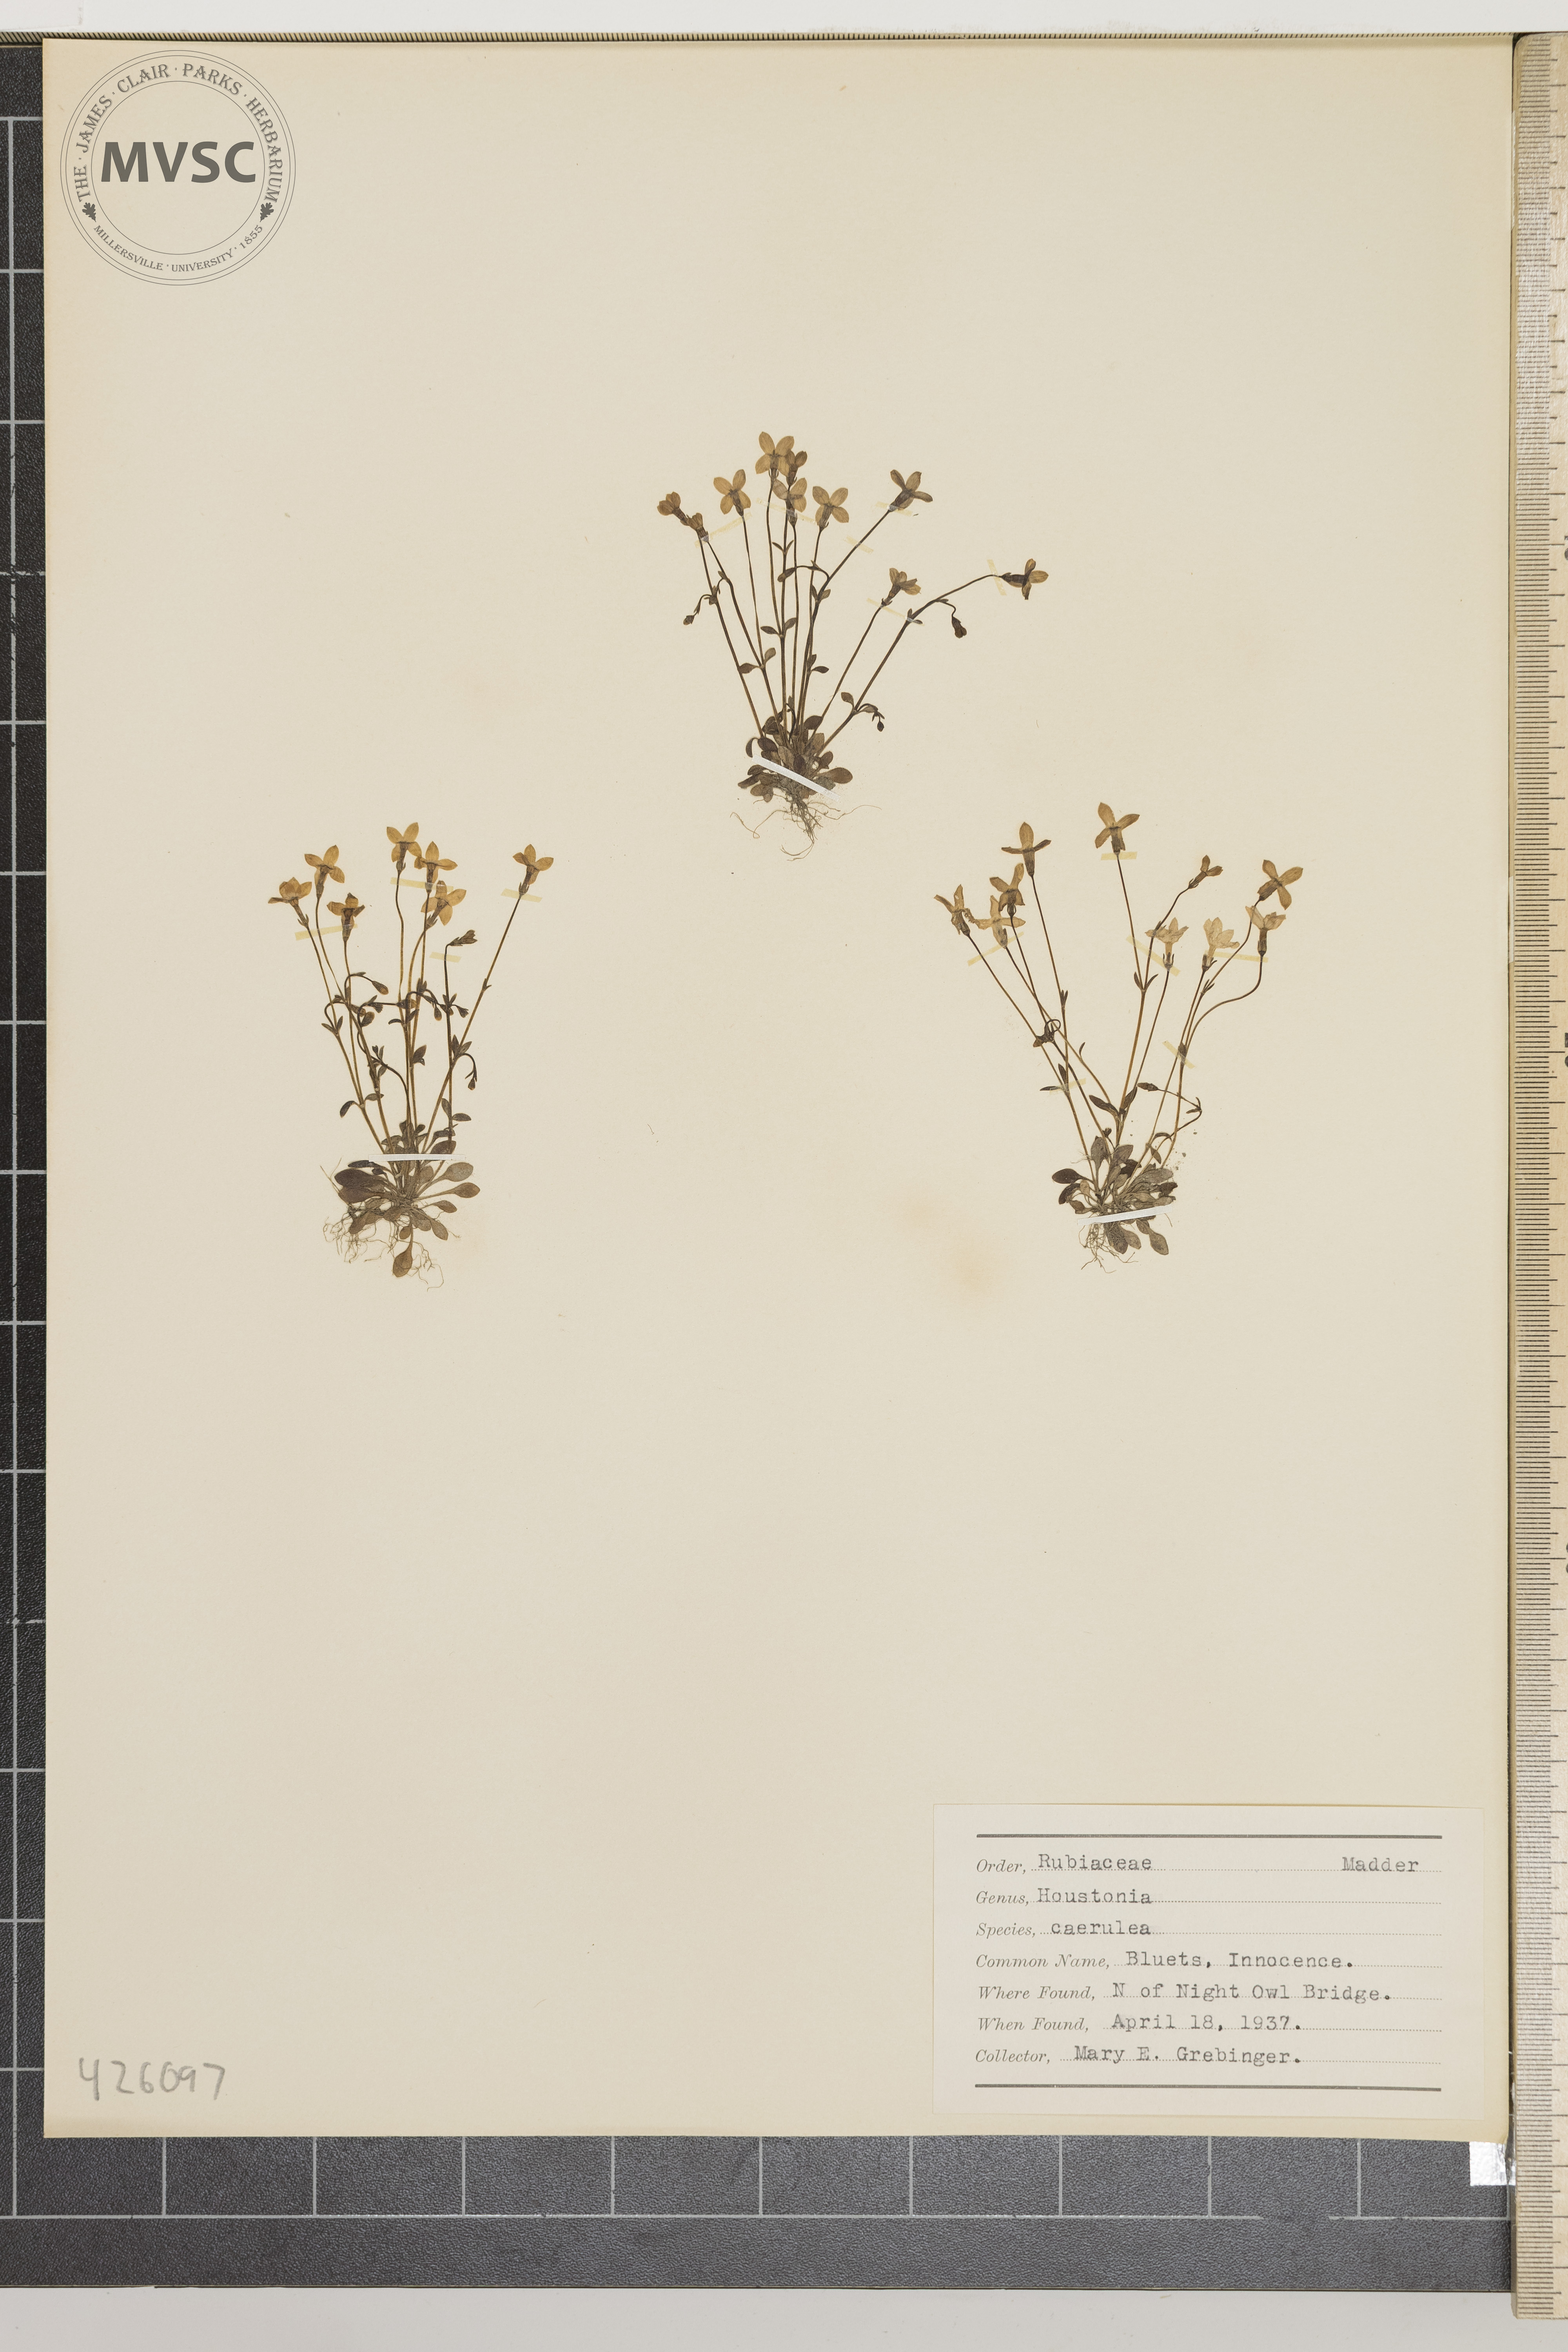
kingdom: Plantae
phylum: Tracheophyta
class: Magnoliopsida
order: Gentianales
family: Rubiaceae
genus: Houstonia
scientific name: Houstonia caerulea
